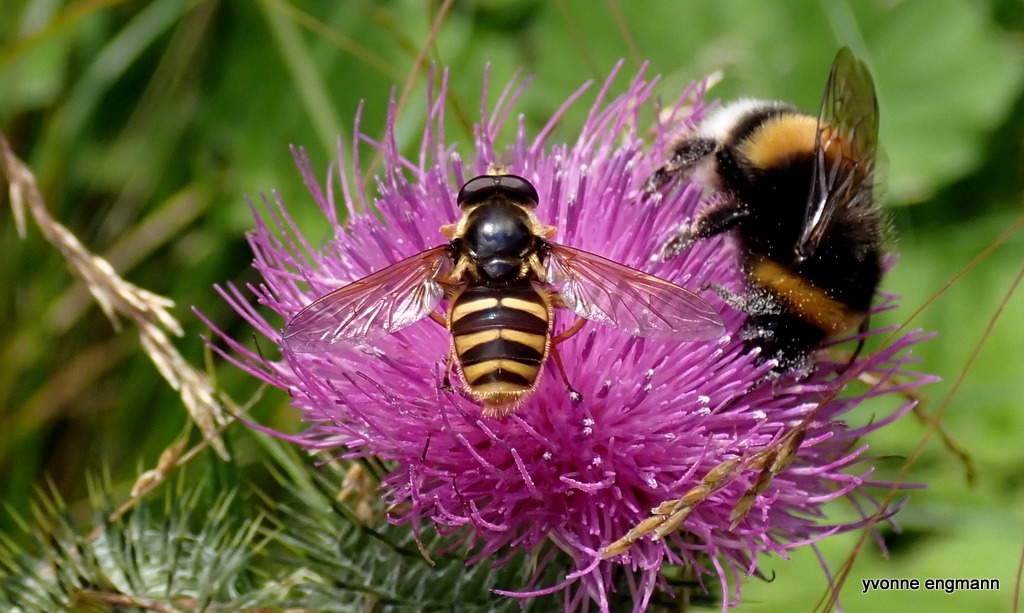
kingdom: Animalia
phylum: Arthropoda
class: Insecta
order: Diptera
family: Syrphidae
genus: Sericomyia
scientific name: Sericomyia silentis
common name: Tørve-silkesvirreflue
